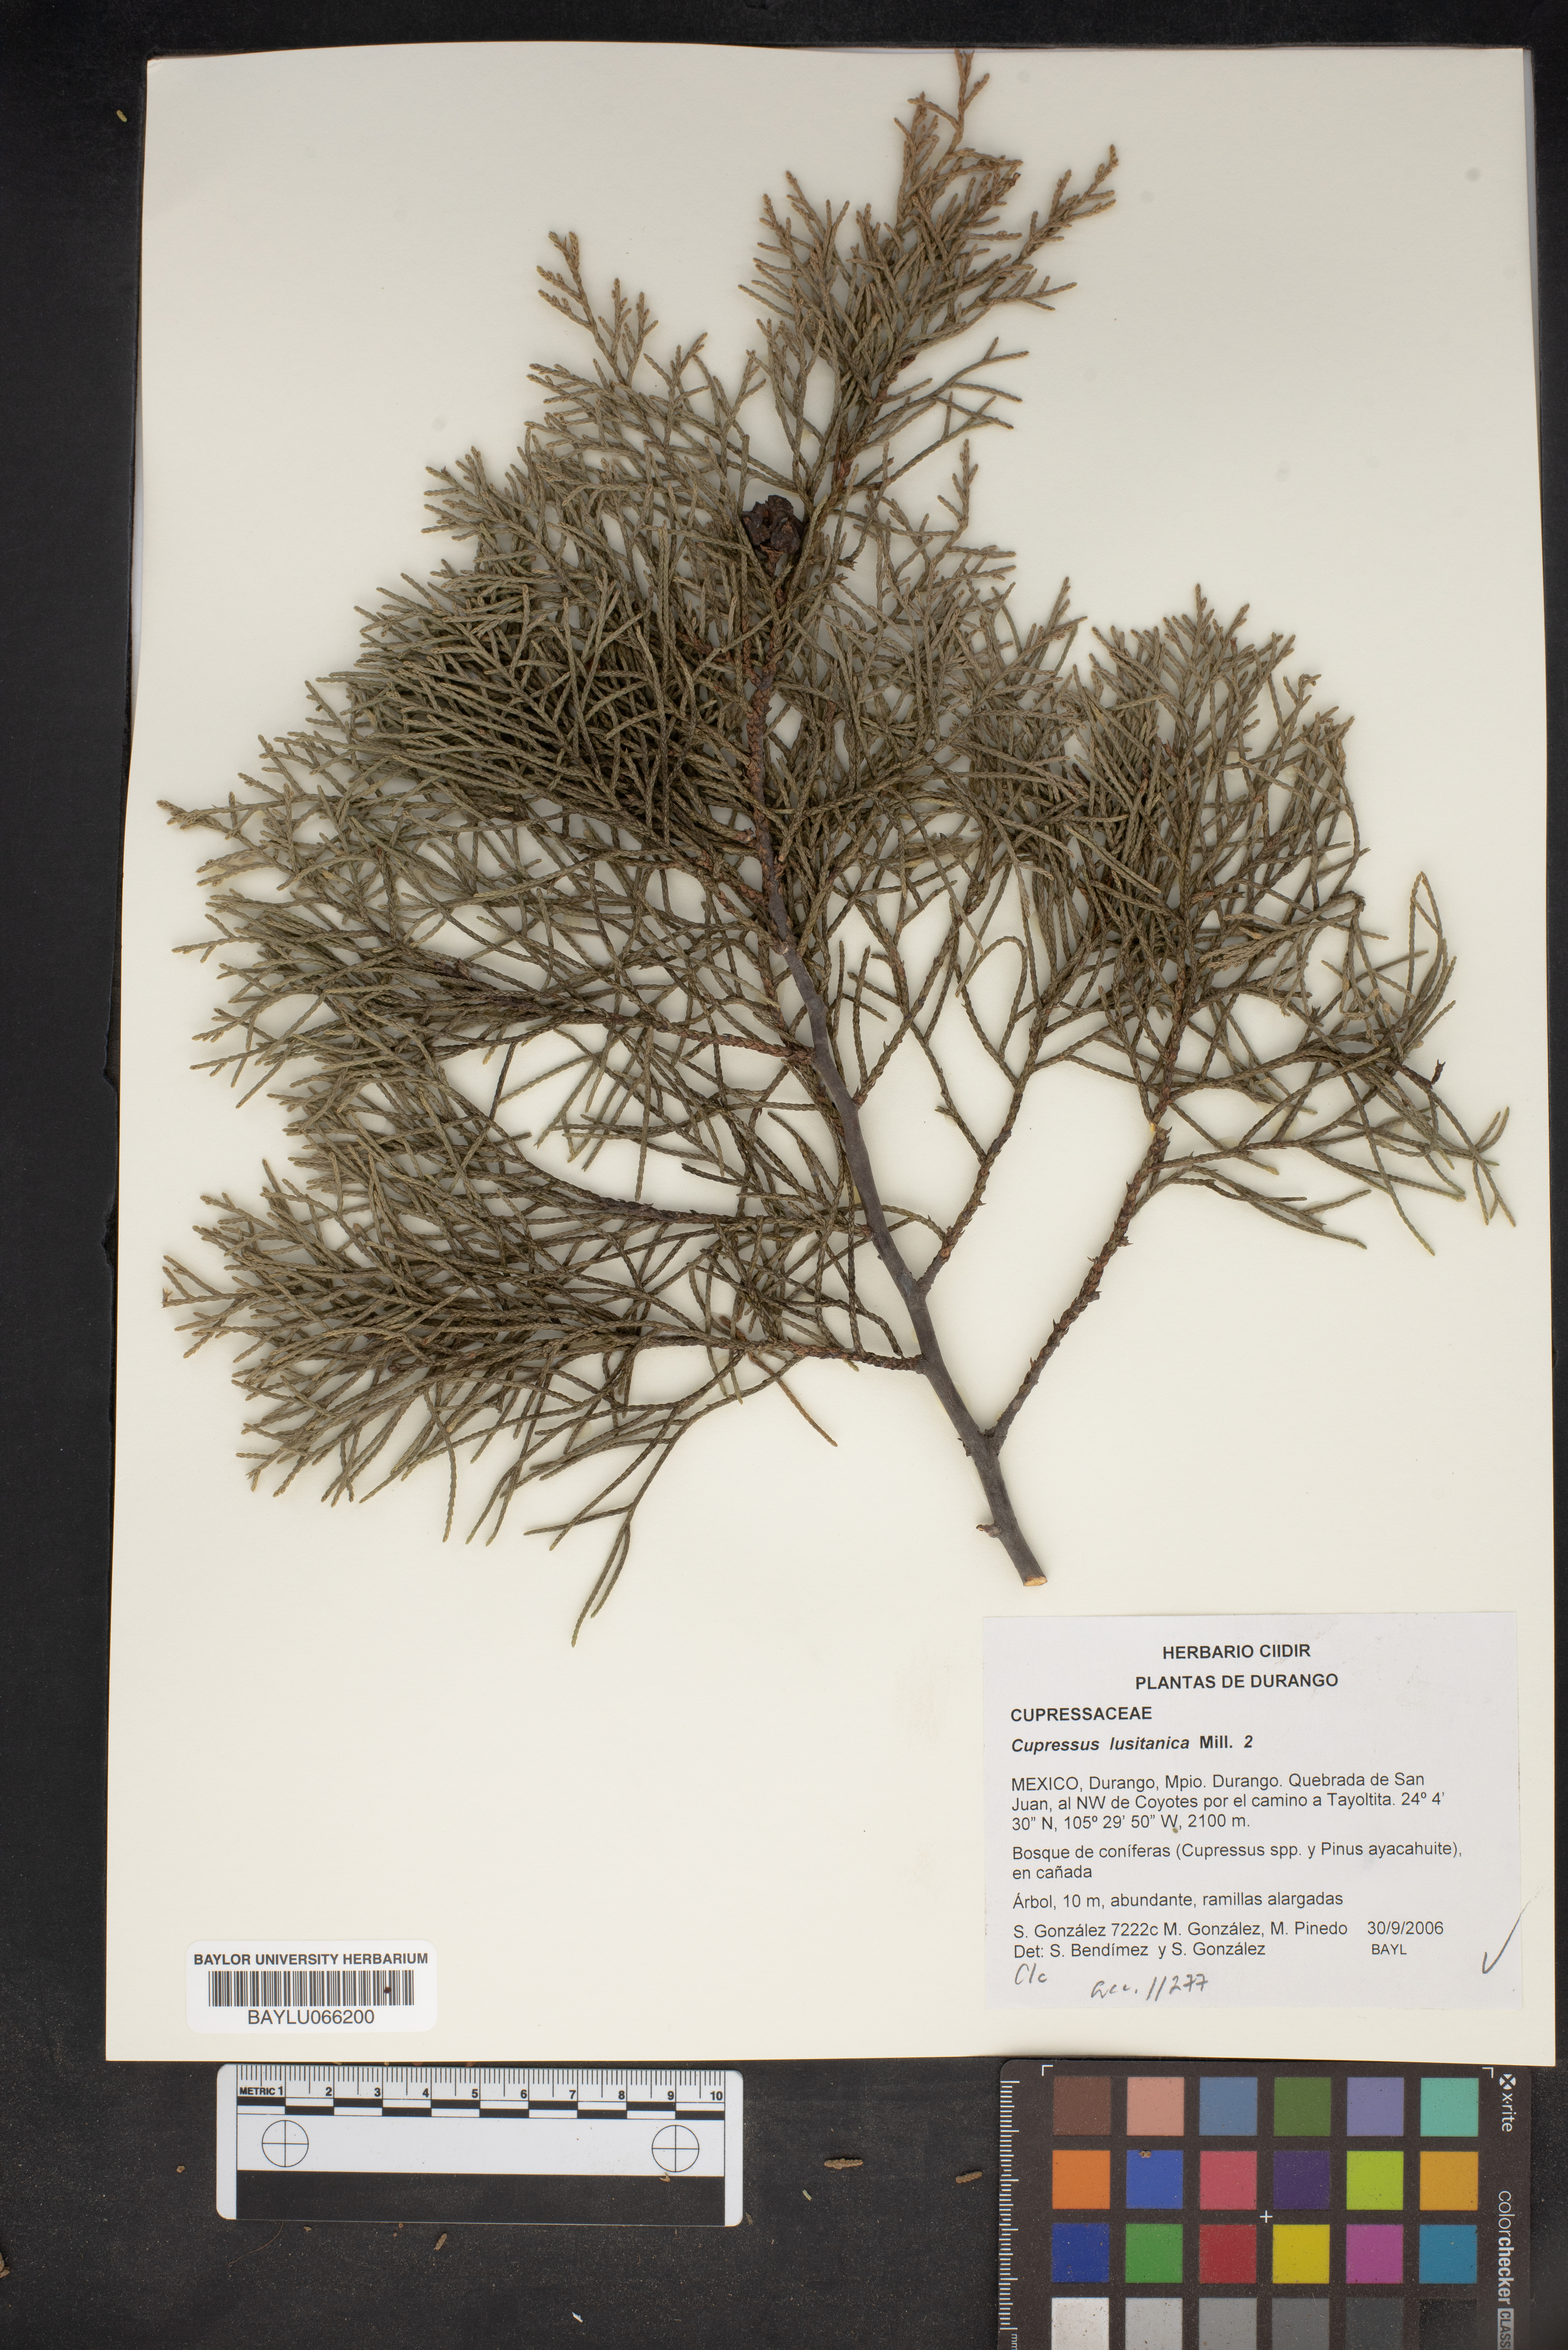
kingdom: Plantae
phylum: Tracheophyta
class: Pinopsida
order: Pinales
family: Cupressaceae
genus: Cupressus
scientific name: Cupressus lusitanica
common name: Mexican cypress
